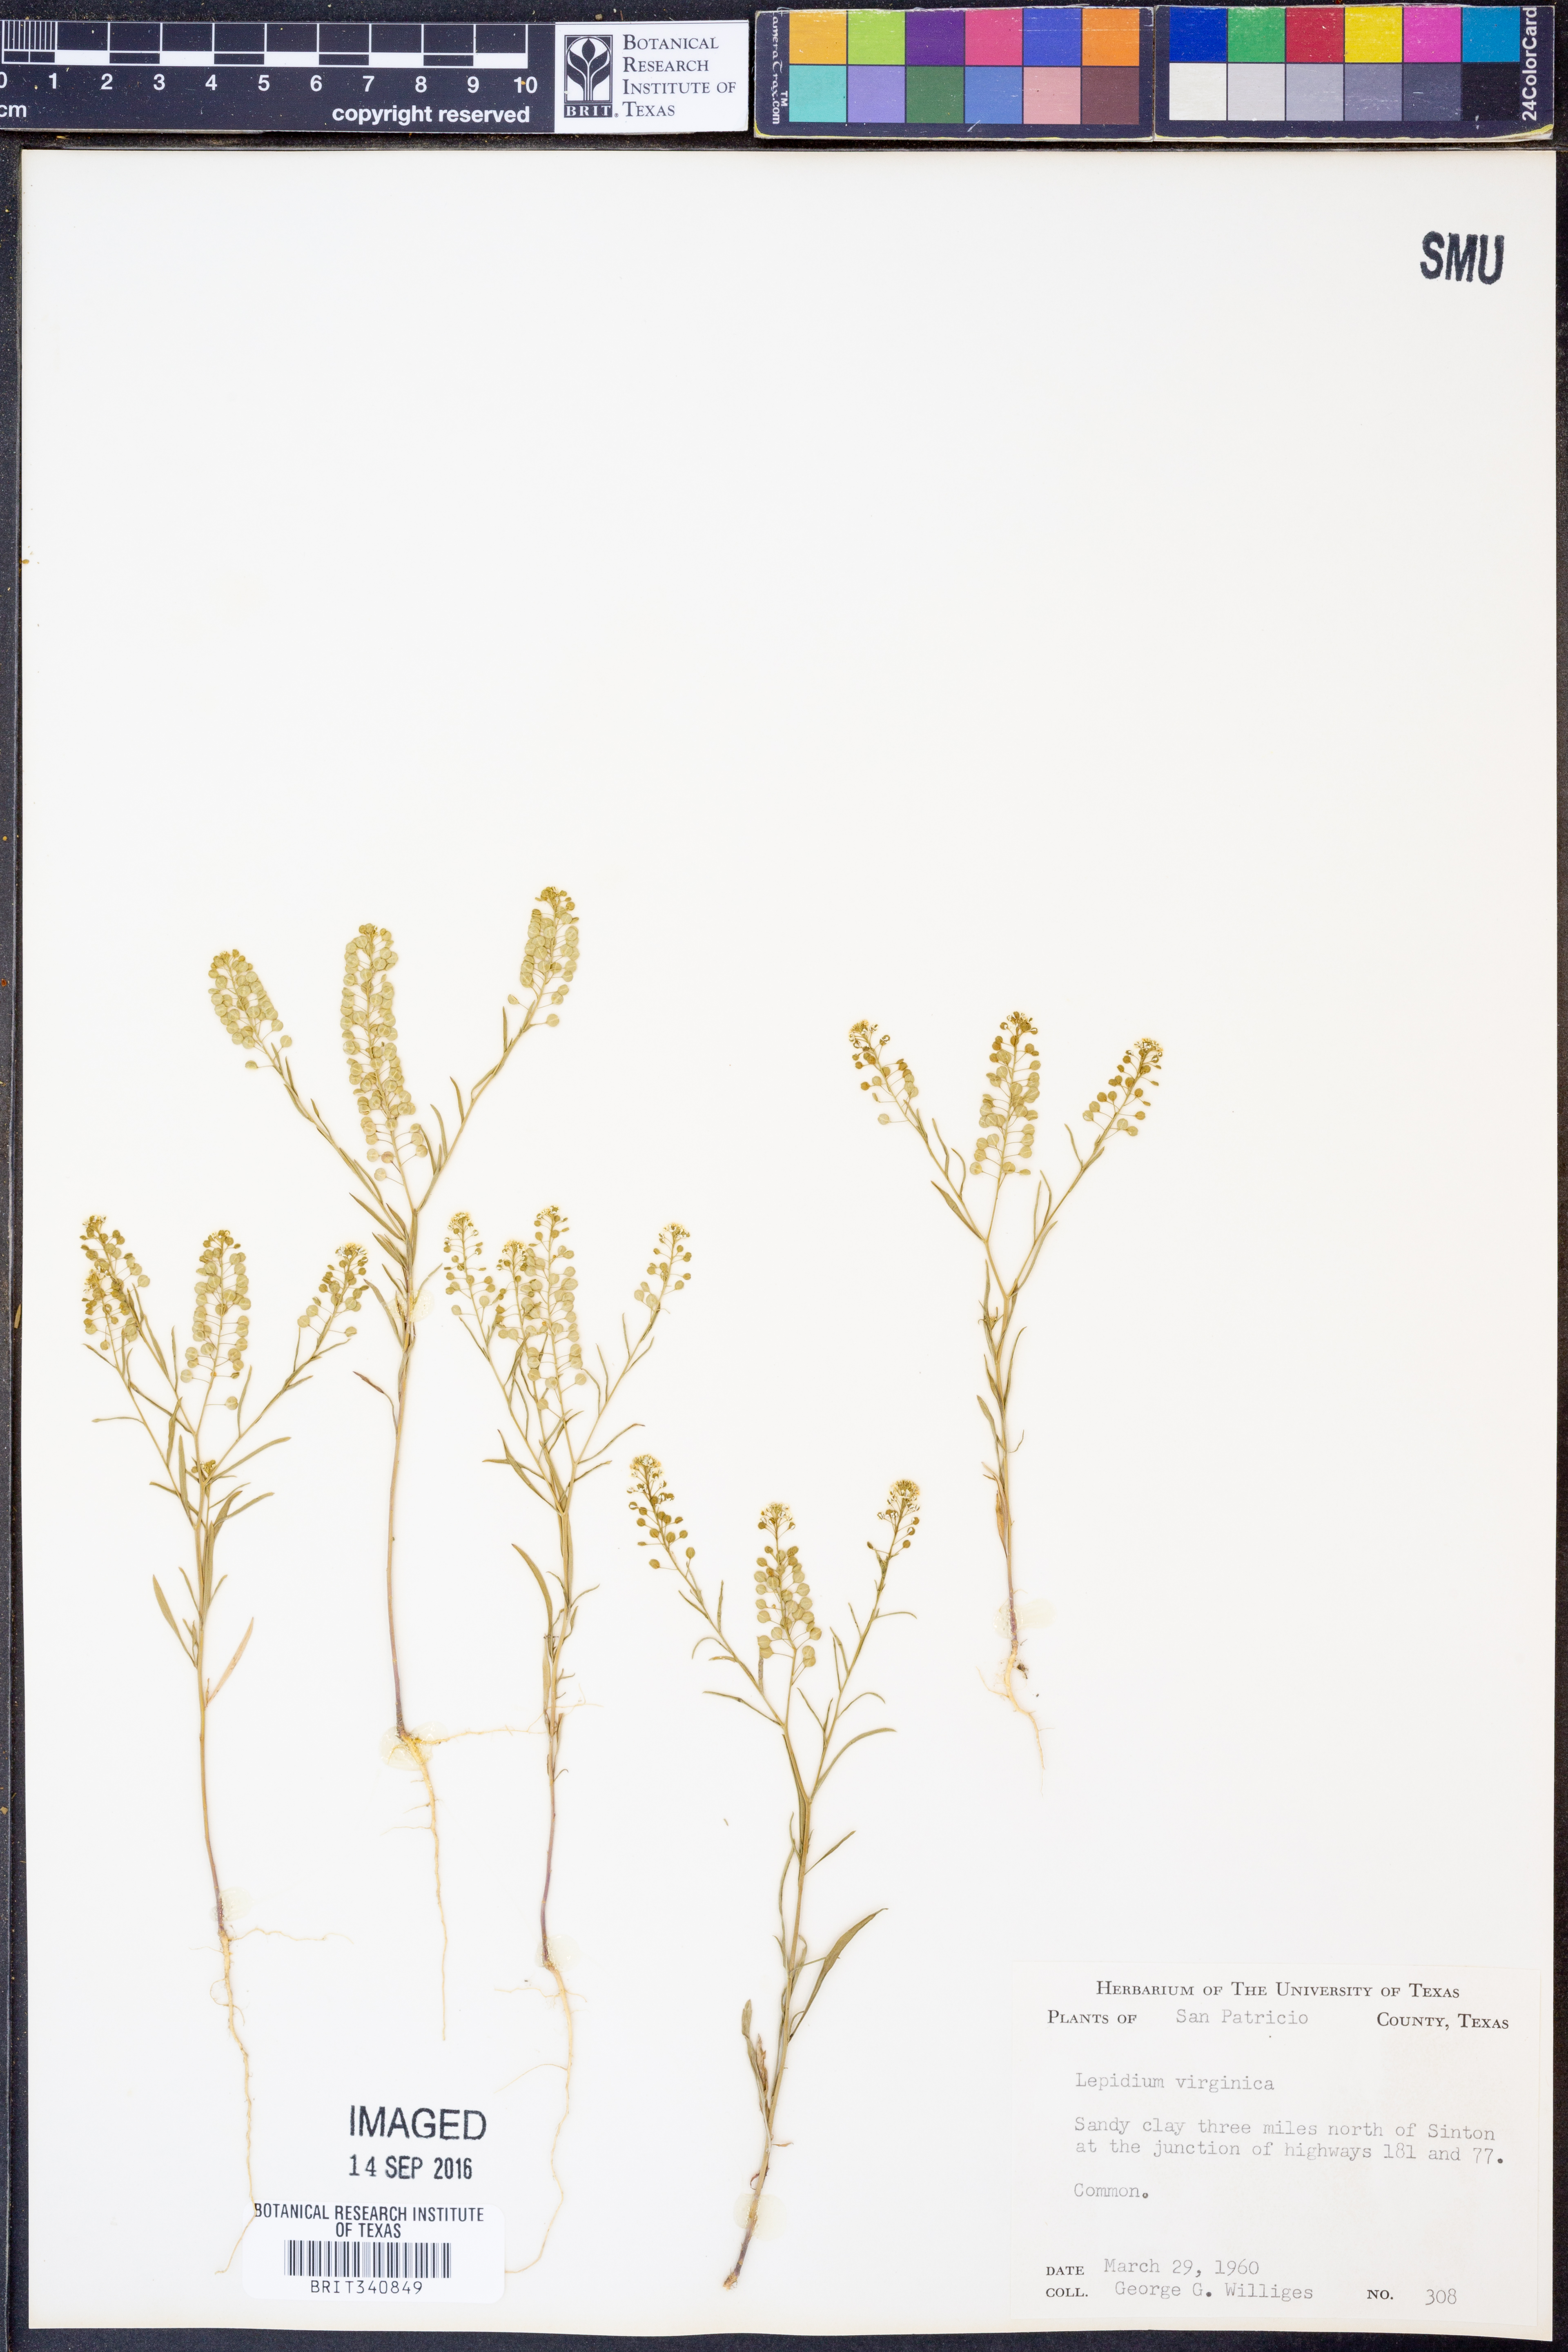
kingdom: Plantae
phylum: Tracheophyta
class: Magnoliopsida
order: Brassicales
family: Brassicaceae
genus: Lepidium
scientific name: Lepidium virginicum
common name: Least pepperwort
